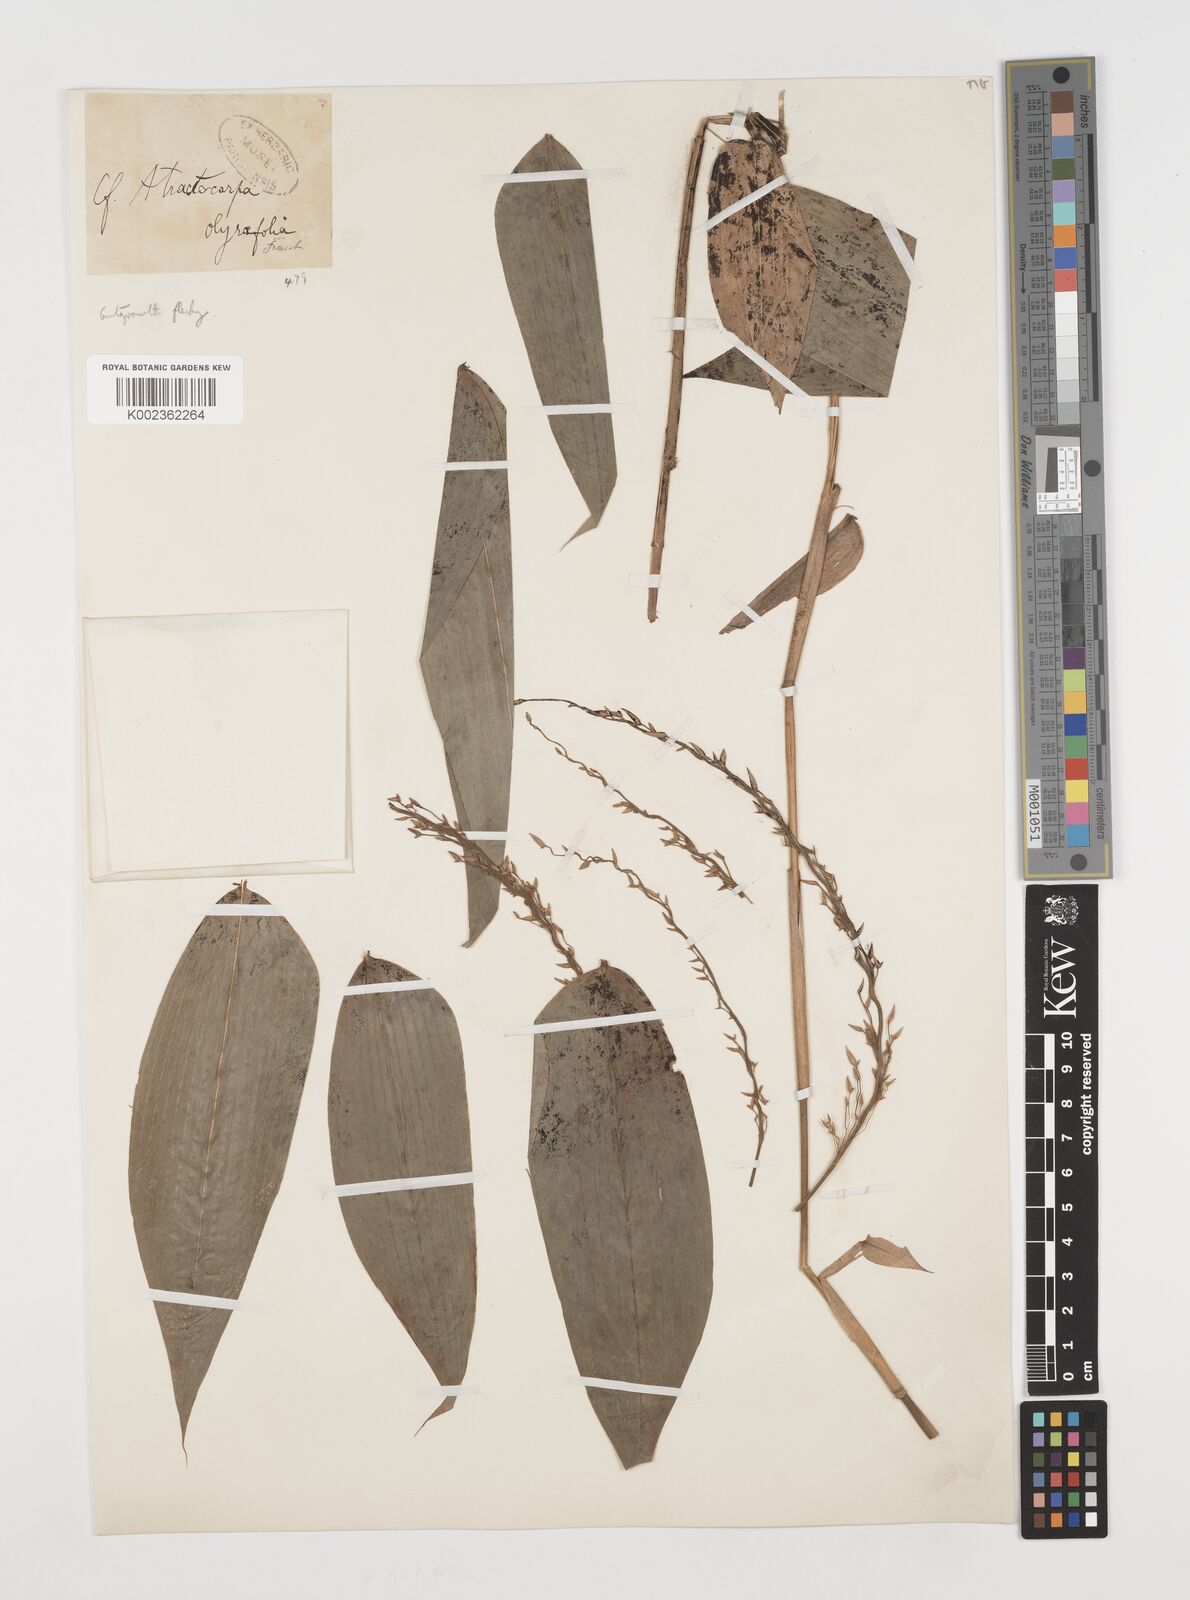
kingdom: Plantae
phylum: Tracheophyta
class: Liliopsida
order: Poales
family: Poaceae
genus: Puelia
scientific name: Puelia olyriformis
